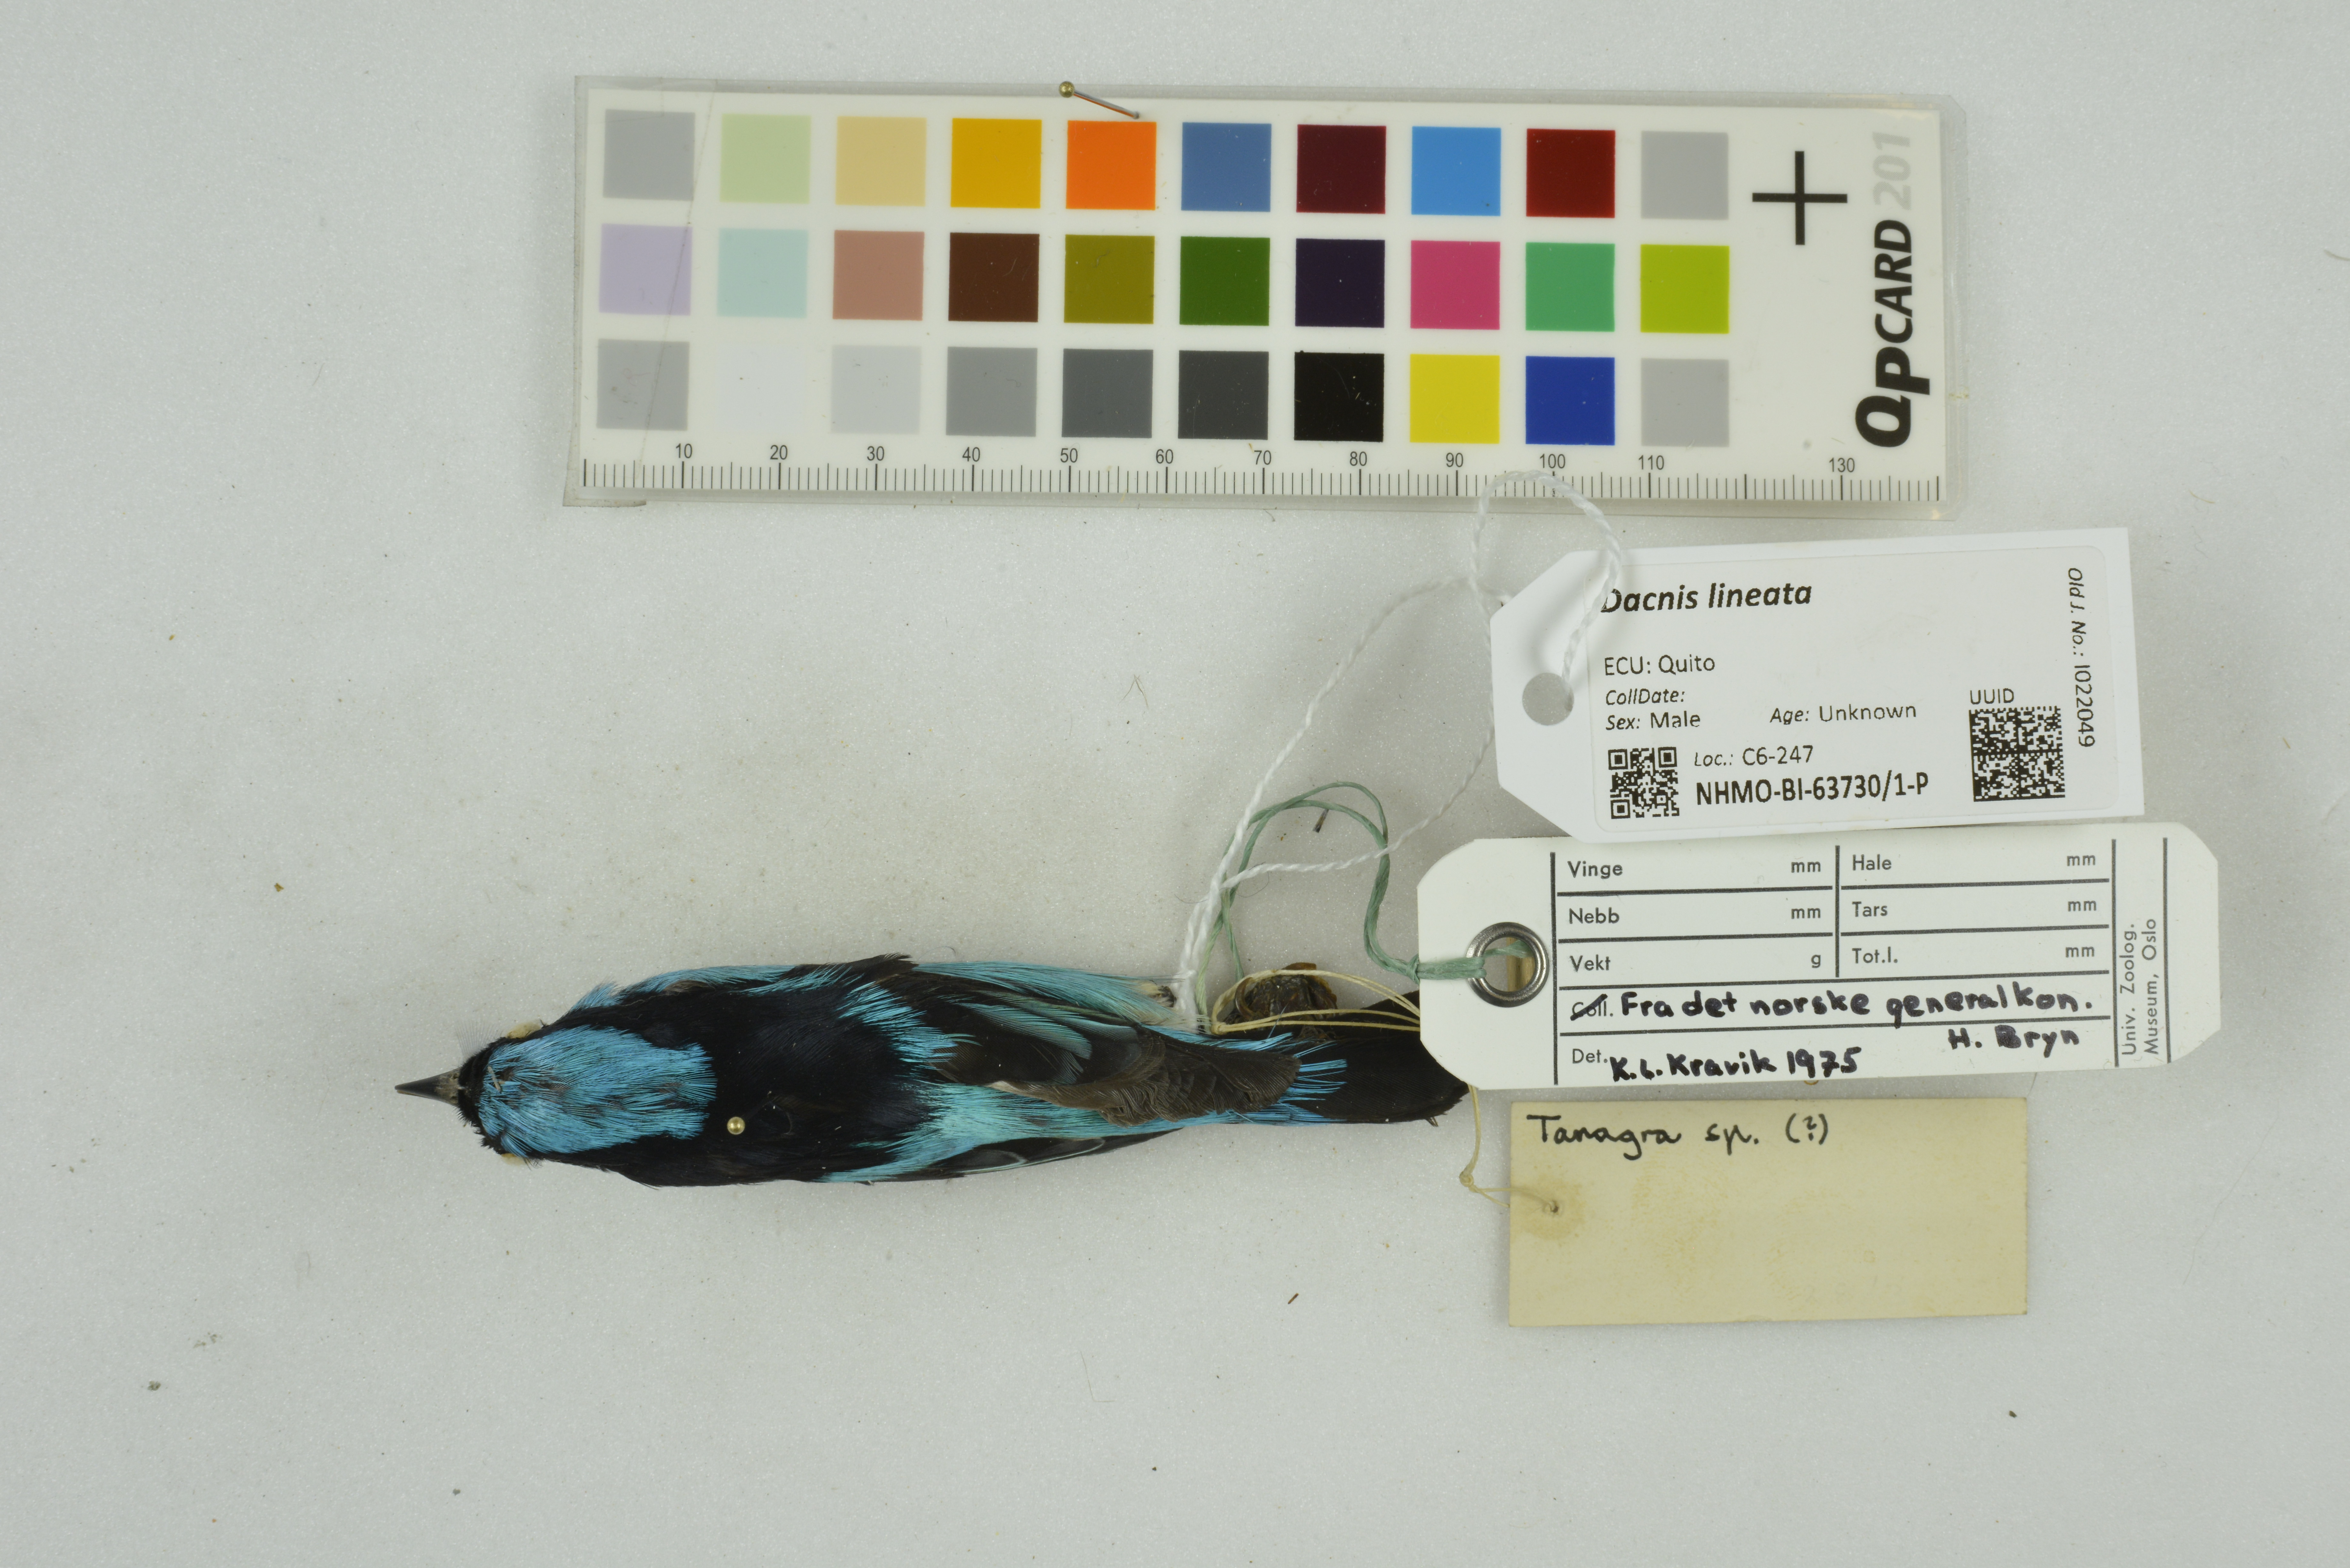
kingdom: Animalia
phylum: Chordata
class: Aves
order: Passeriformes
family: Thraupidae
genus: Dacnis
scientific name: Dacnis lineata
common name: Black-faced dacnis
